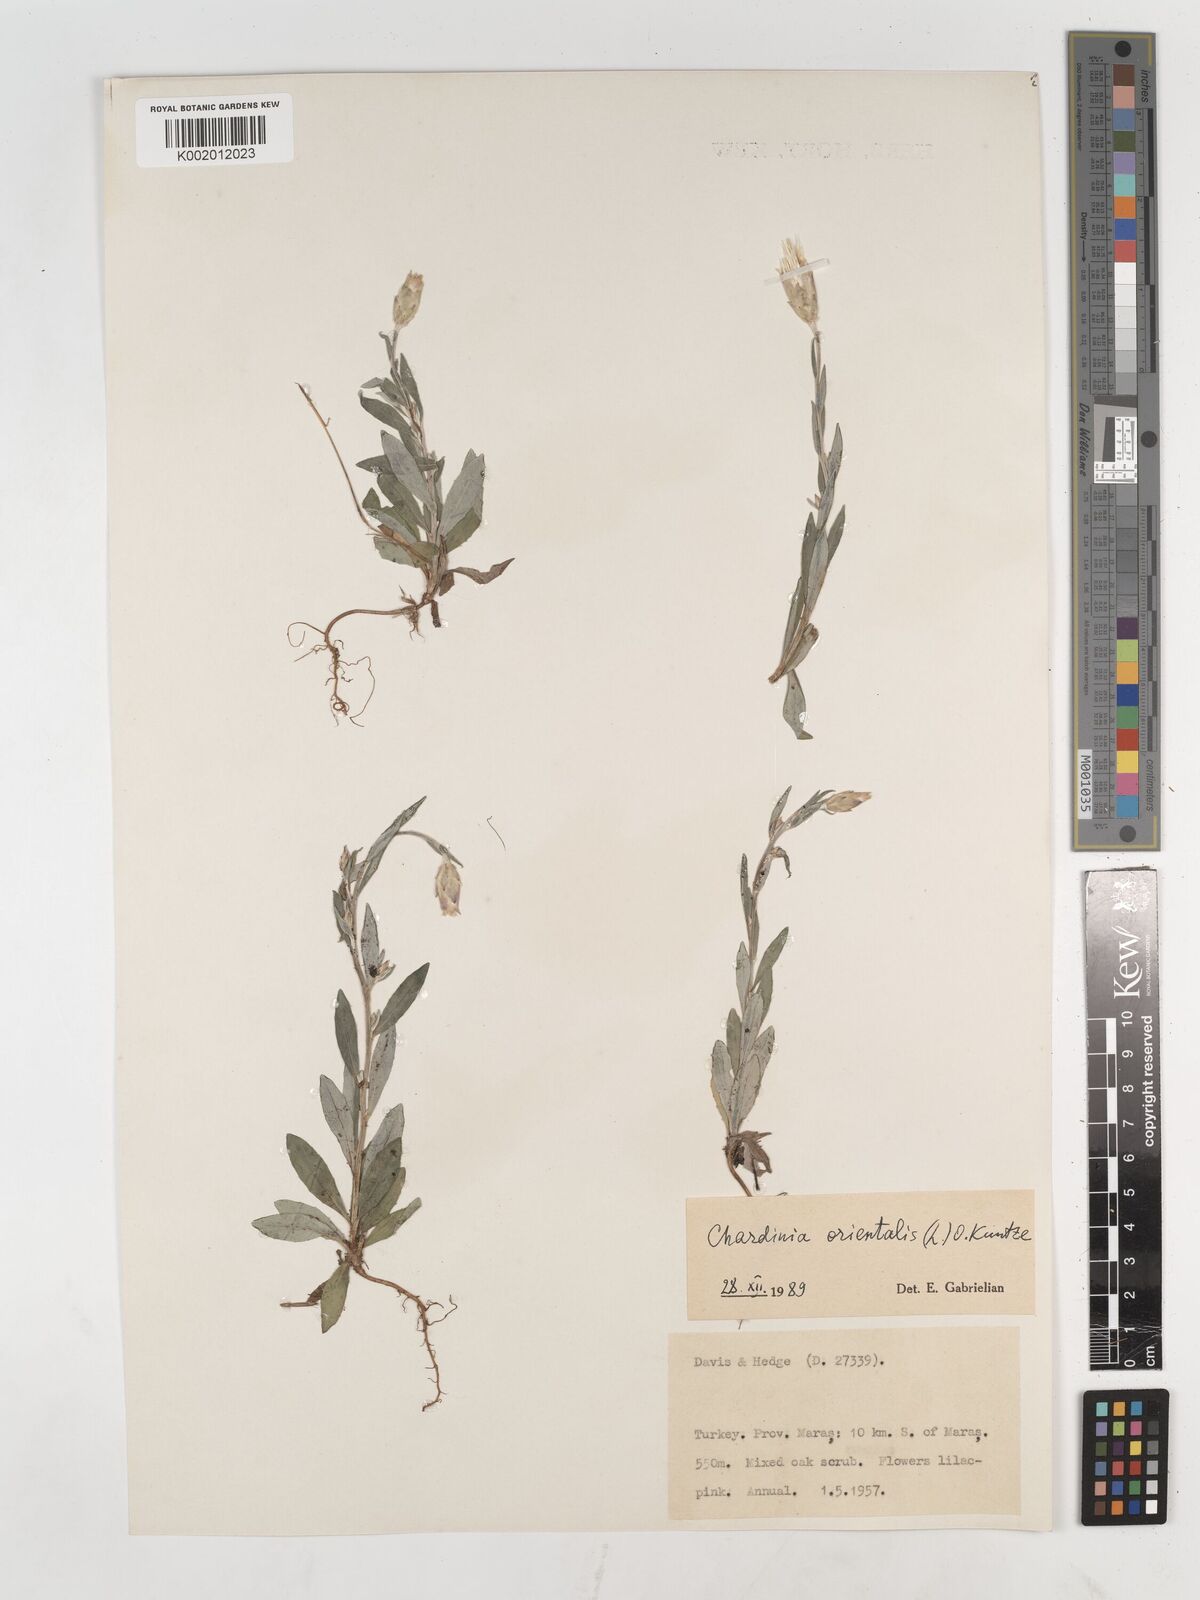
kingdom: Plantae
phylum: Tracheophyta
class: Magnoliopsida
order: Asterales
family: Asteraceae
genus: Chardinia
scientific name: Chardinia orientalis
